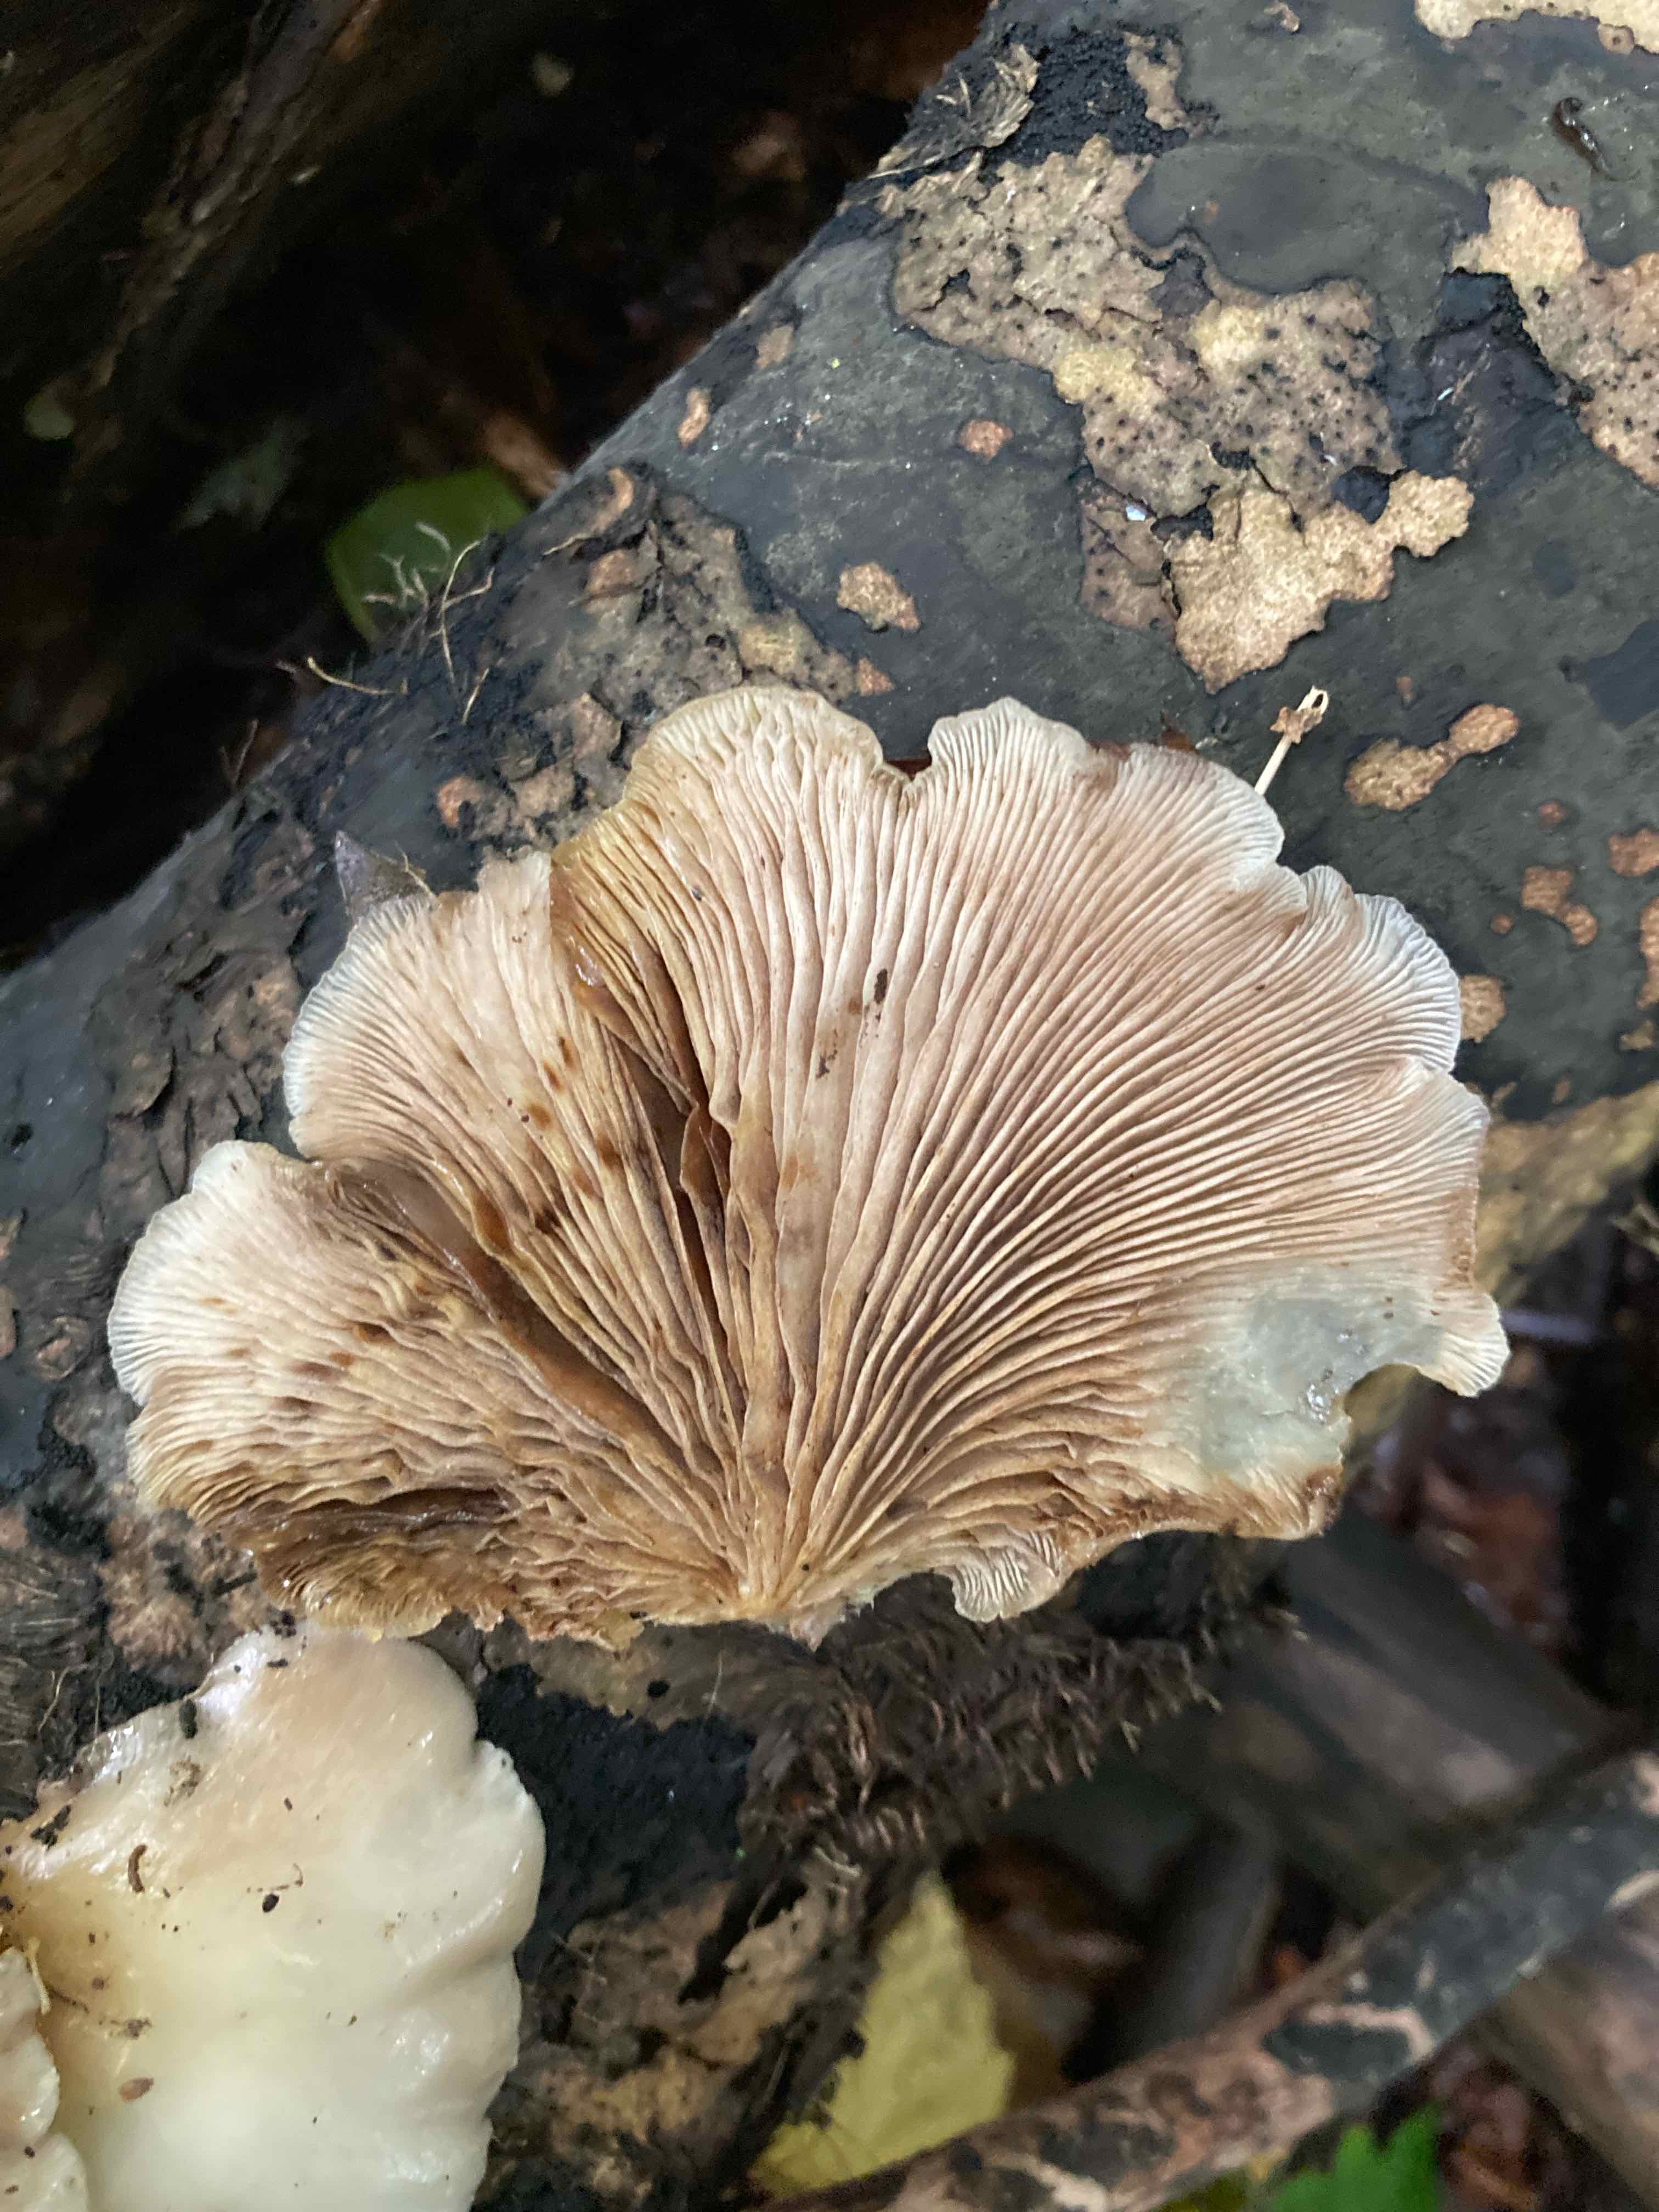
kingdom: Fungi
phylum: Basidiomycota
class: Agaricomycetes
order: Agaricales
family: Crepidotaceae
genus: Crepidotus
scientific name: Crepidotus
